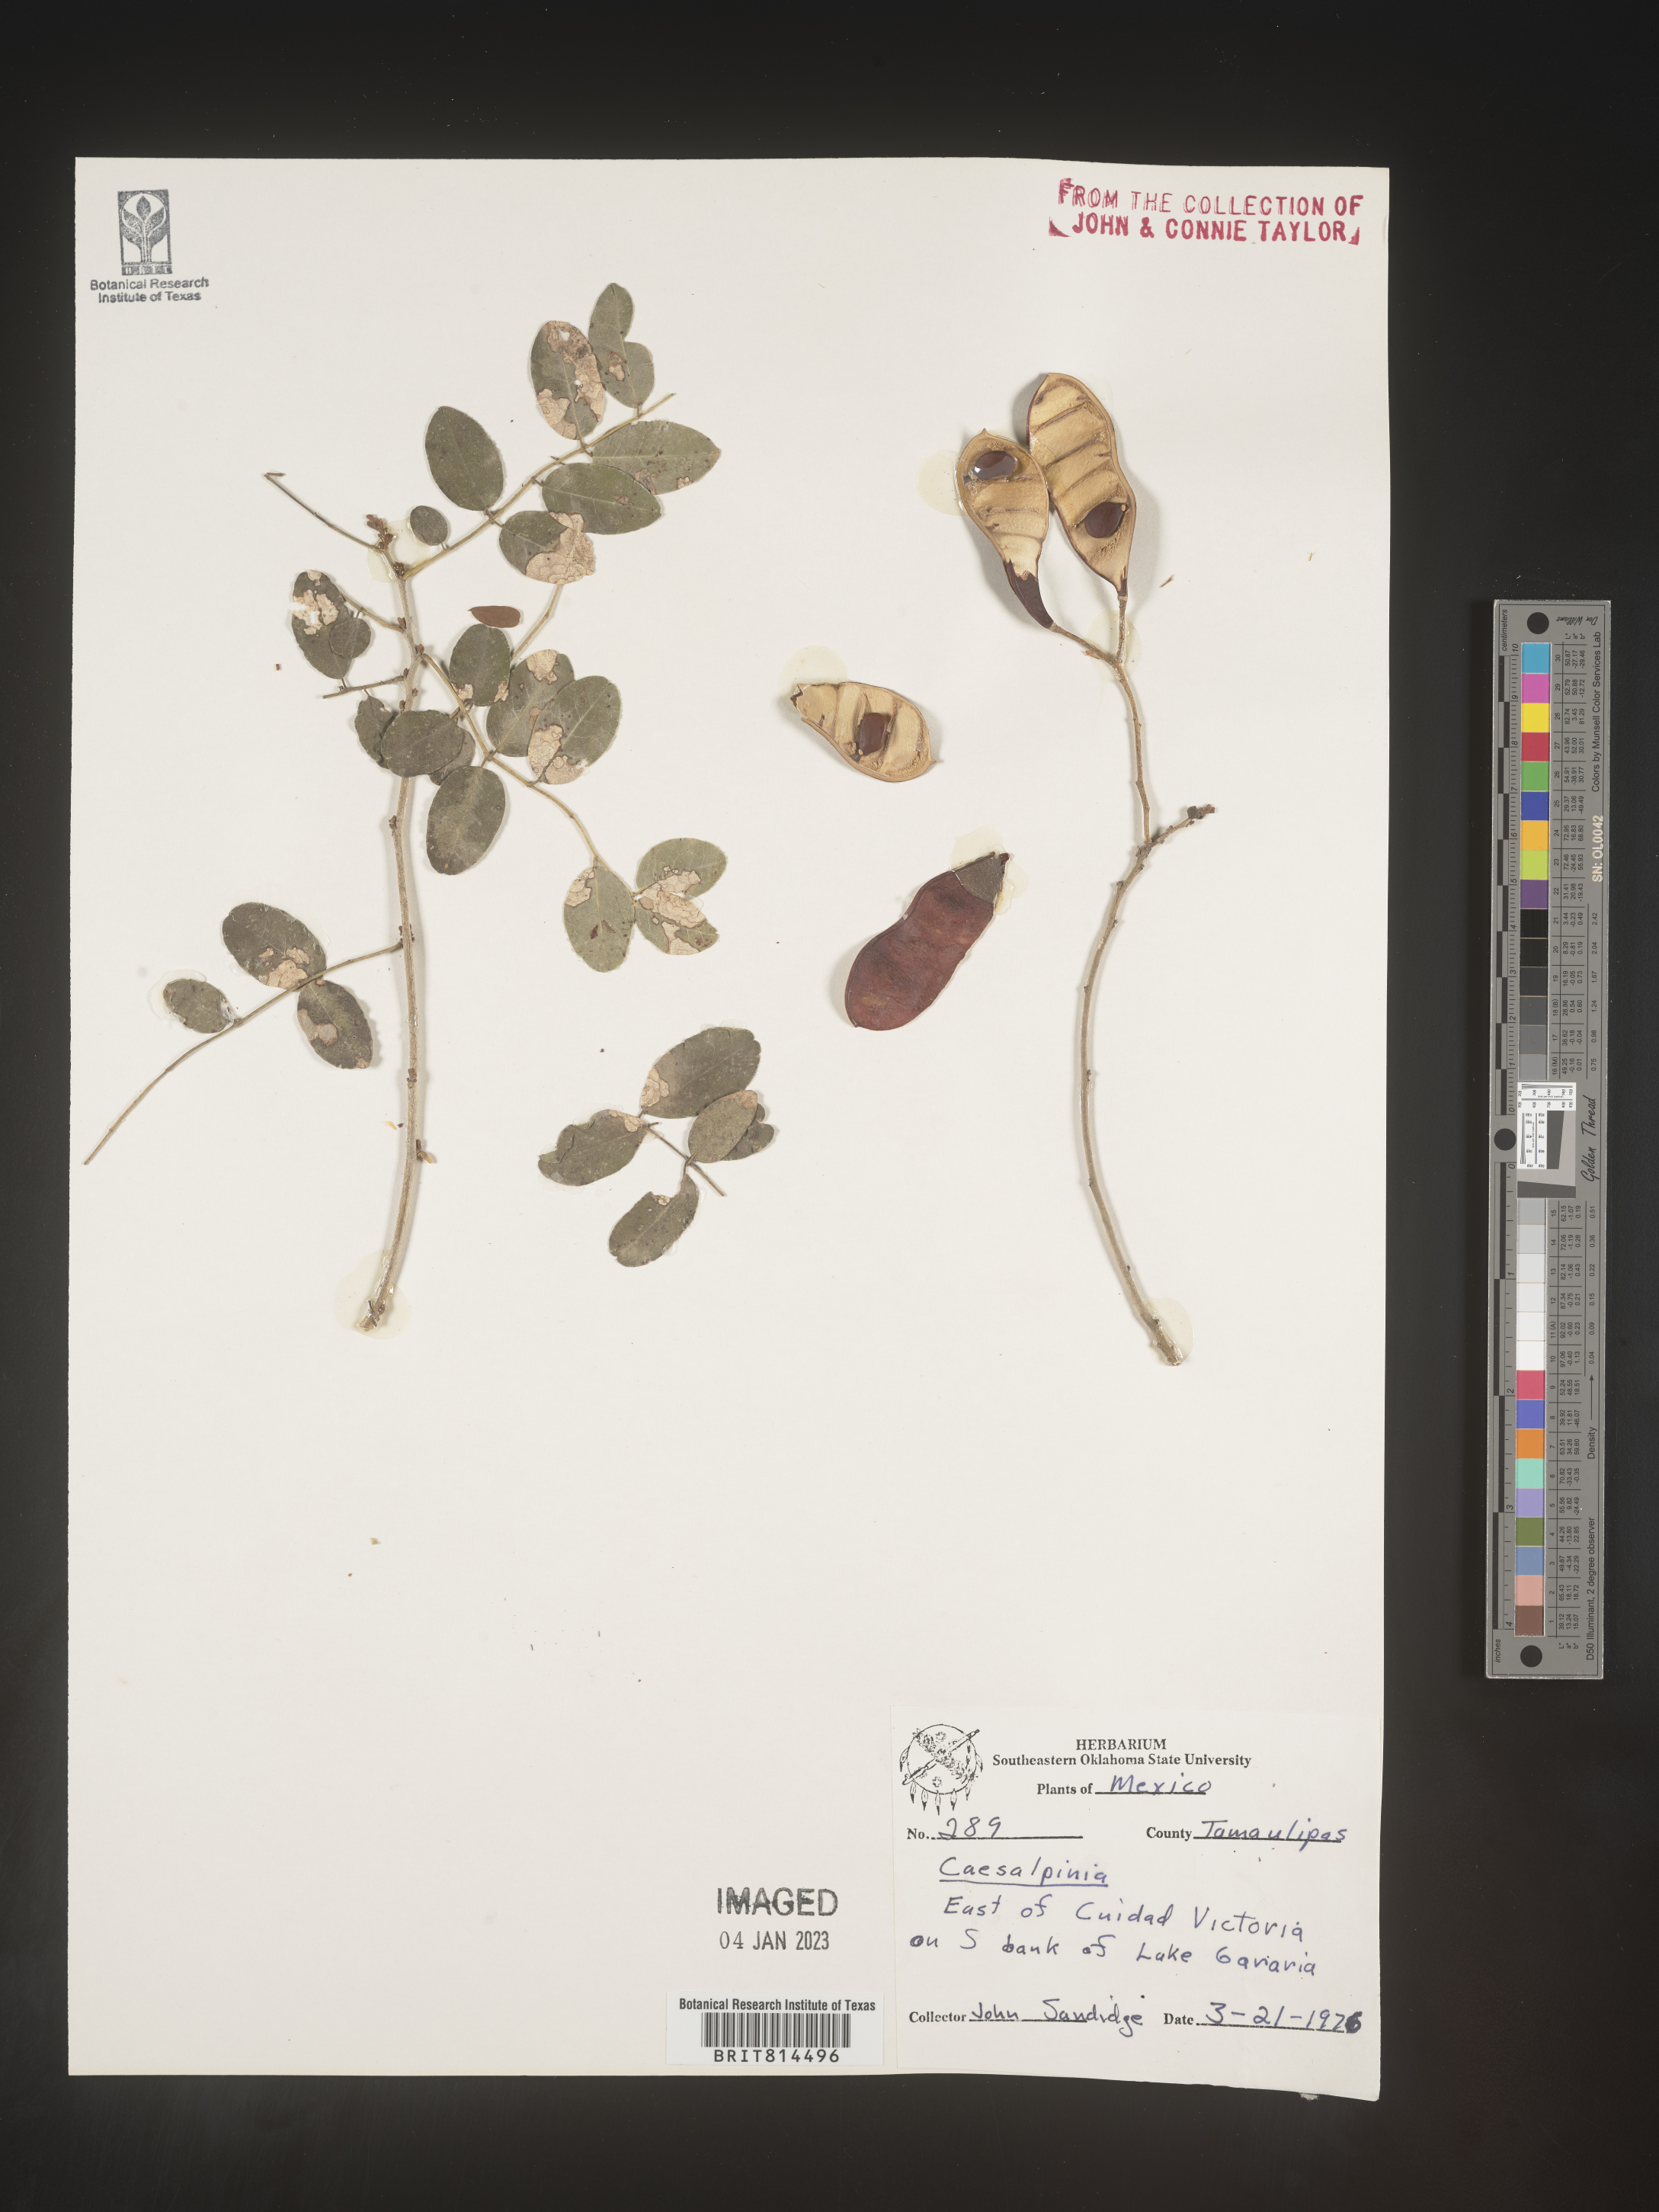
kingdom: Plantae
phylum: Tracheophyta
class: Magnoliopsida
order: Fabales
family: Fabaceae
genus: Caesalpinia
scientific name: Caesalpinia
